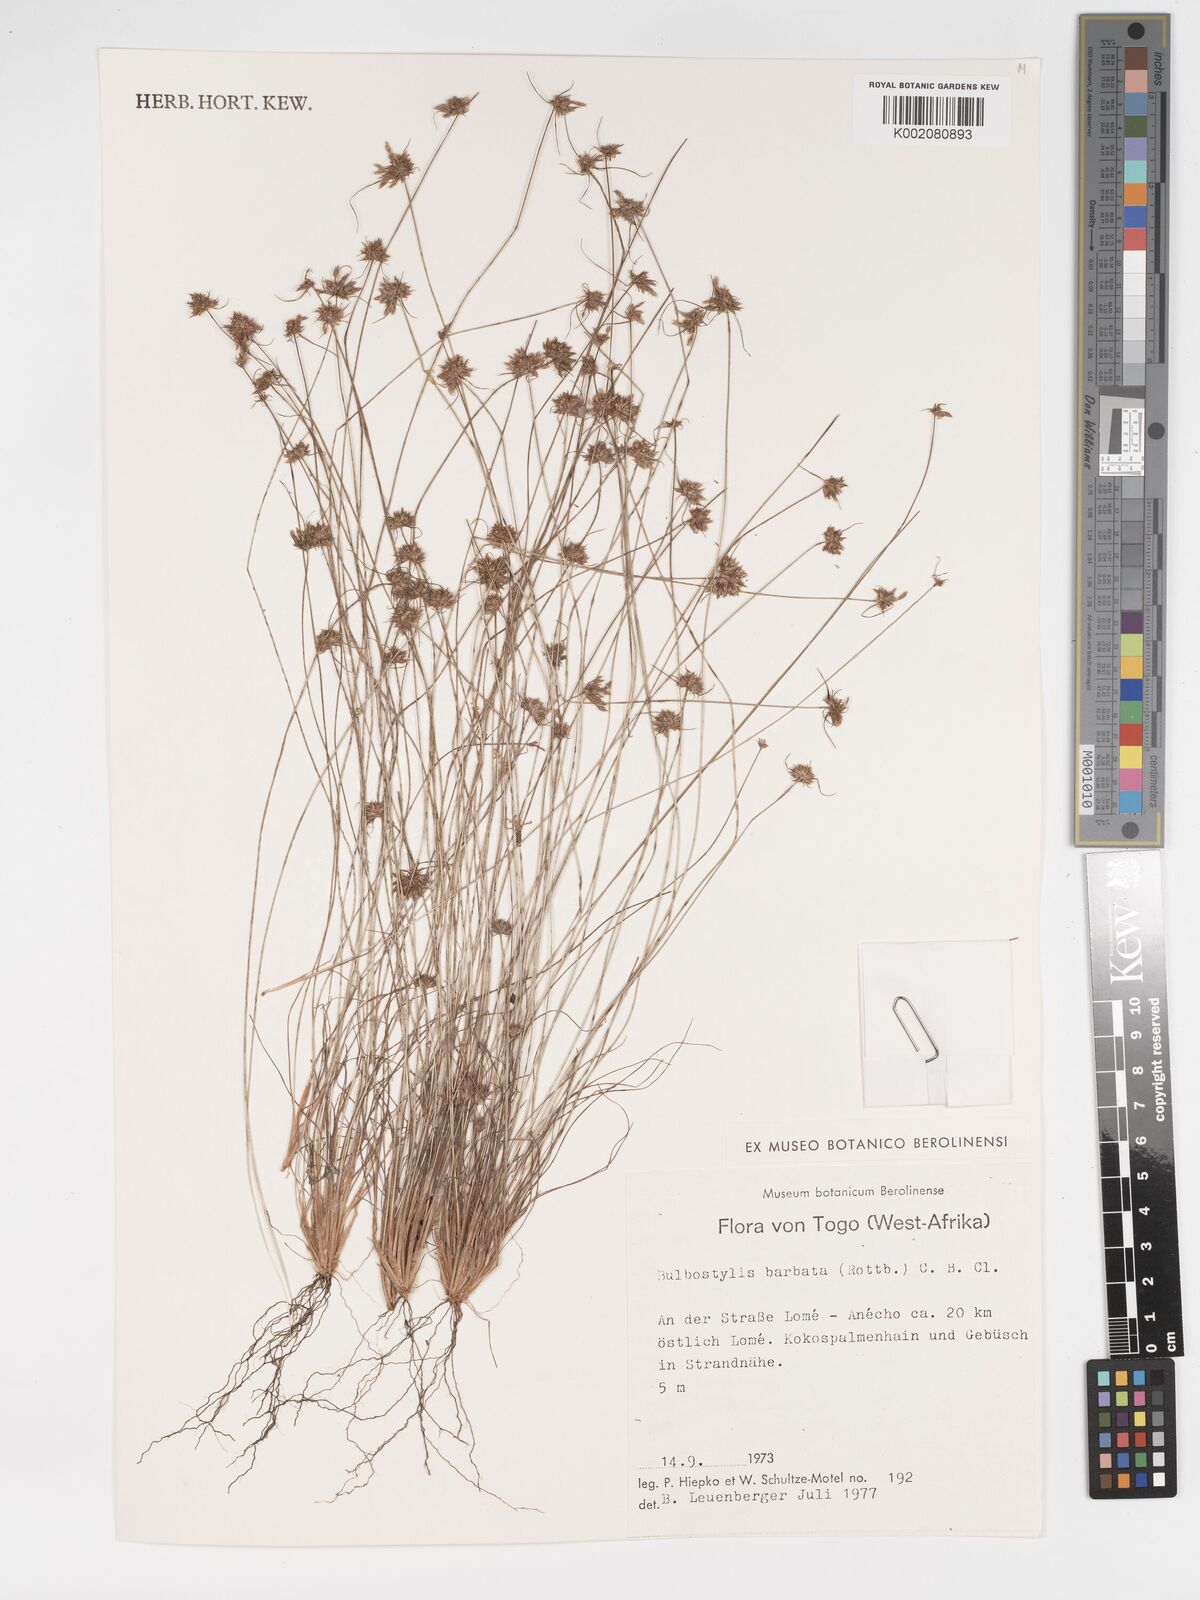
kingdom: Plantae
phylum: Tracheophyta
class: Liliopsida
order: Poales
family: Cyperaceae
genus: Bulbostylis
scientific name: Bulbostylis barbata
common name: Watergrass
